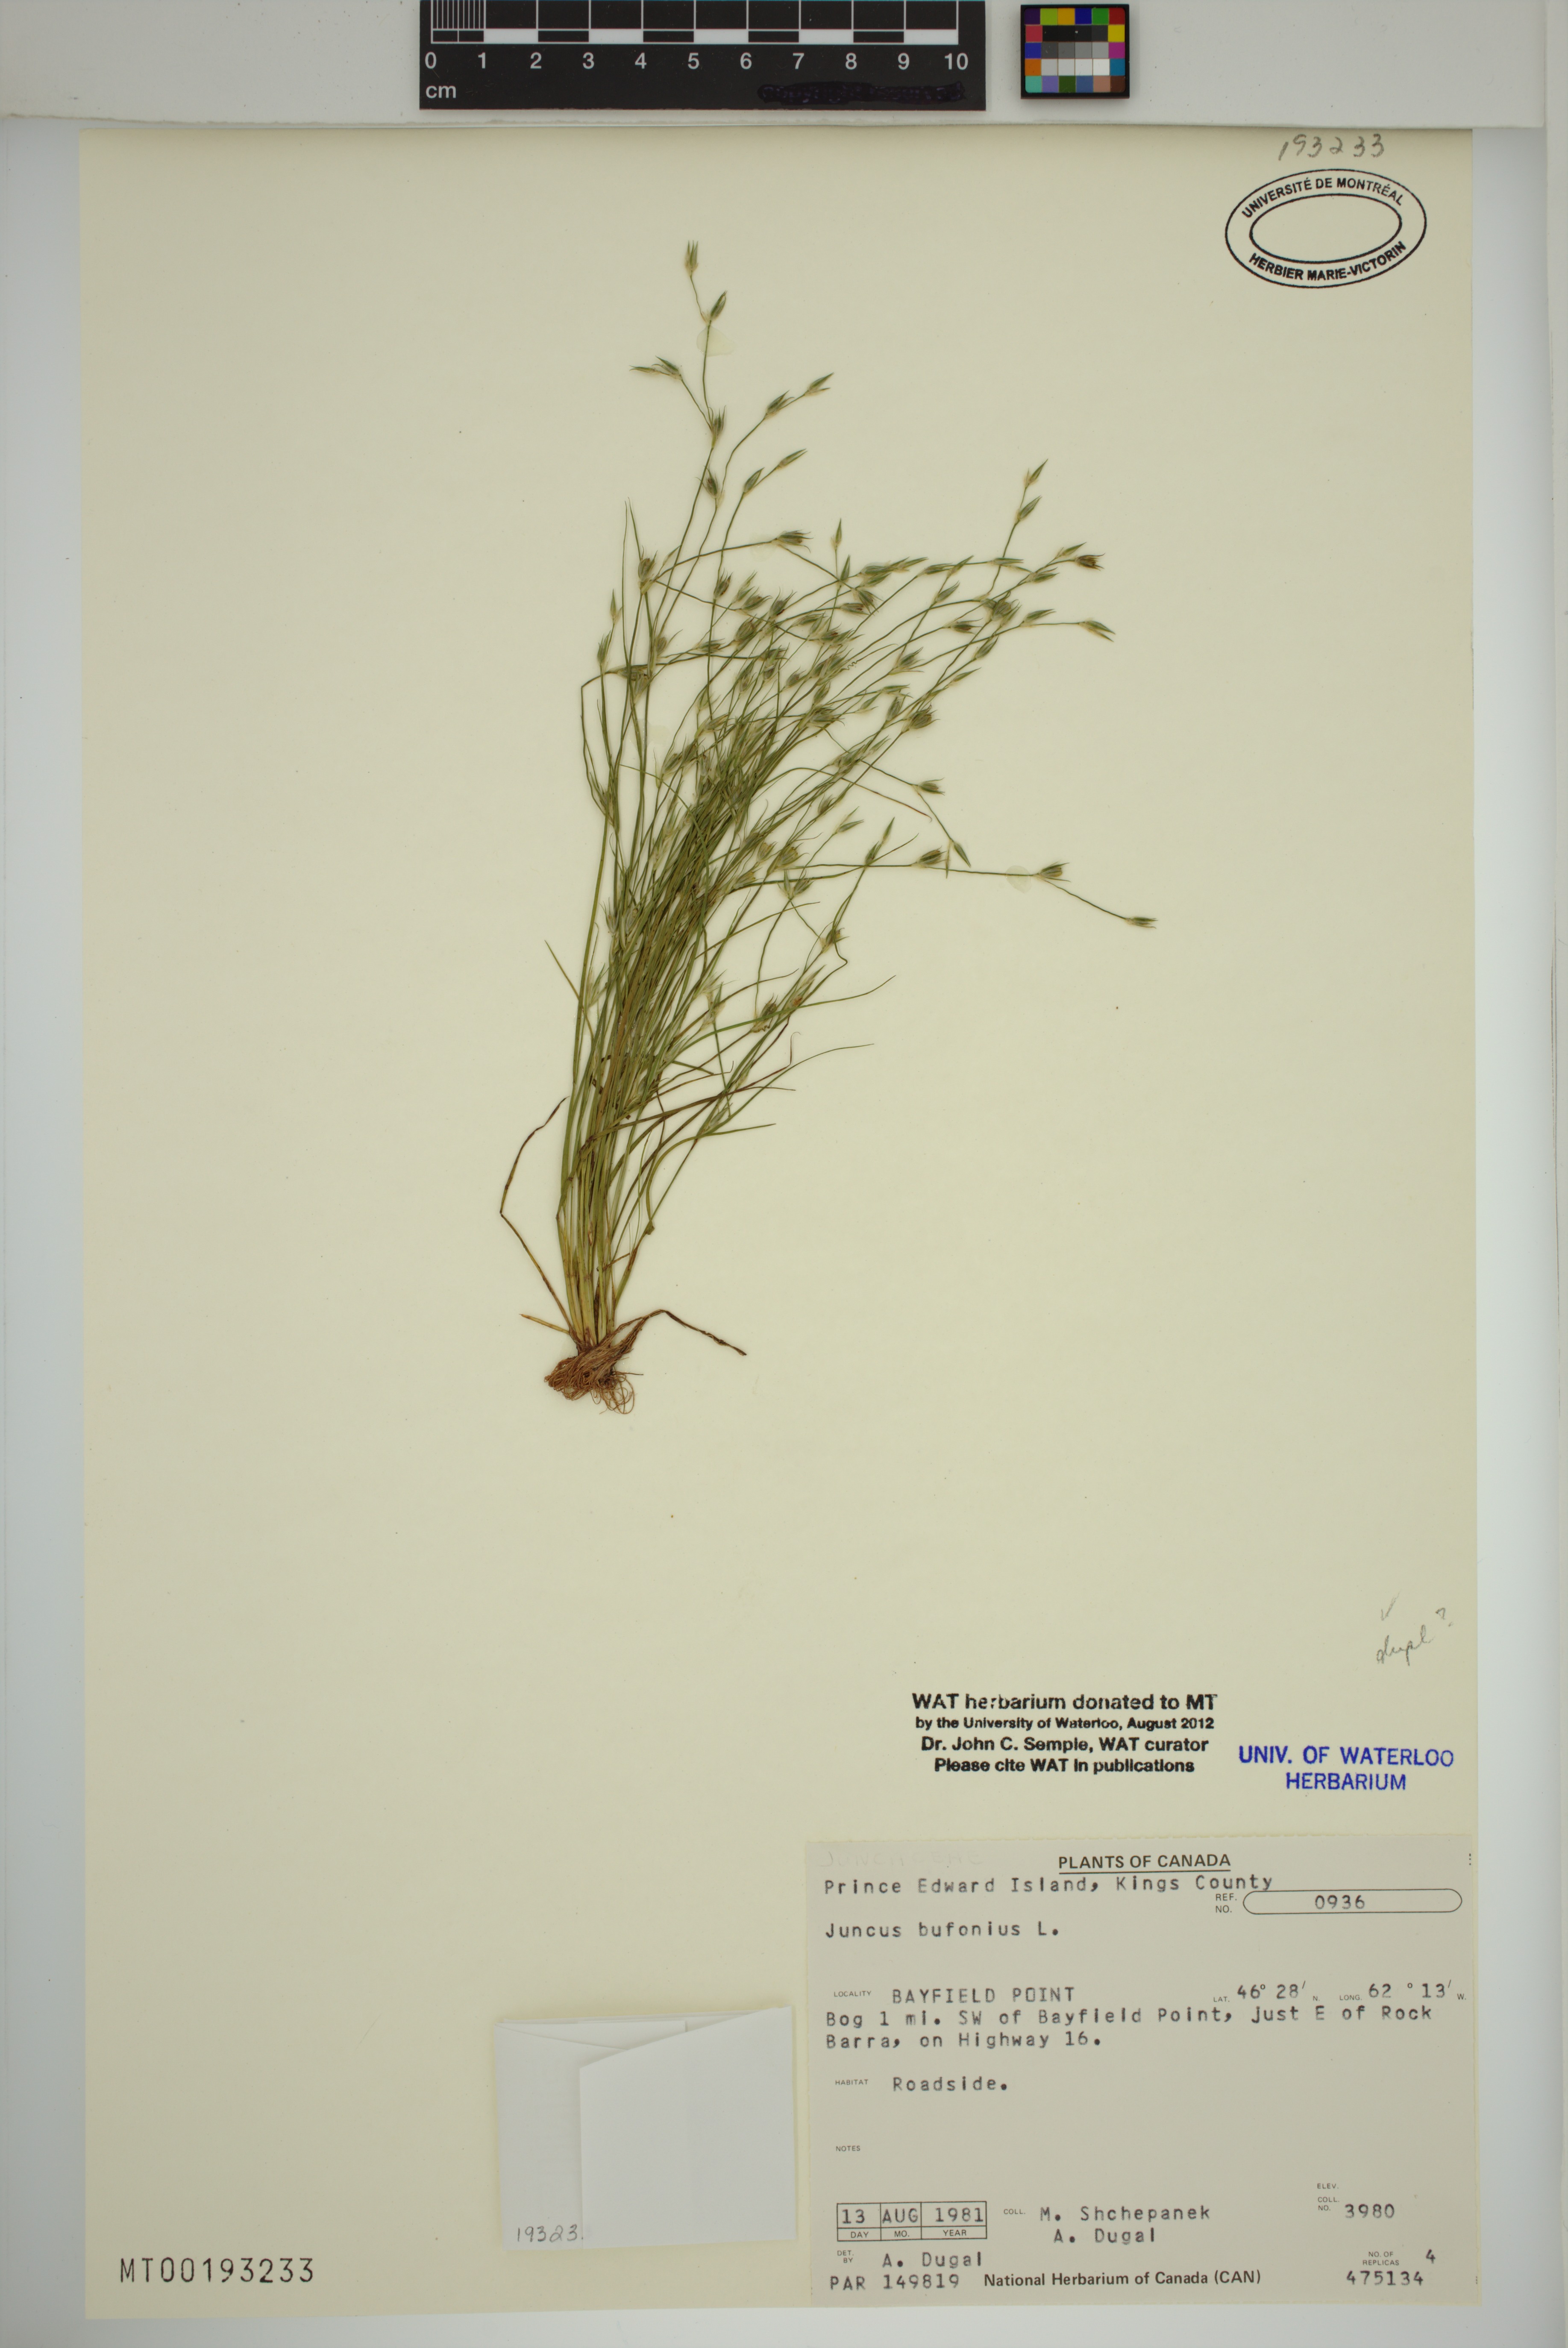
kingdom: Plantae
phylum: Tracheophyta
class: Liliopsida
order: Poales
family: Juncaceae
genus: Juncus
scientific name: Juncus bufonius
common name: Toad rush
